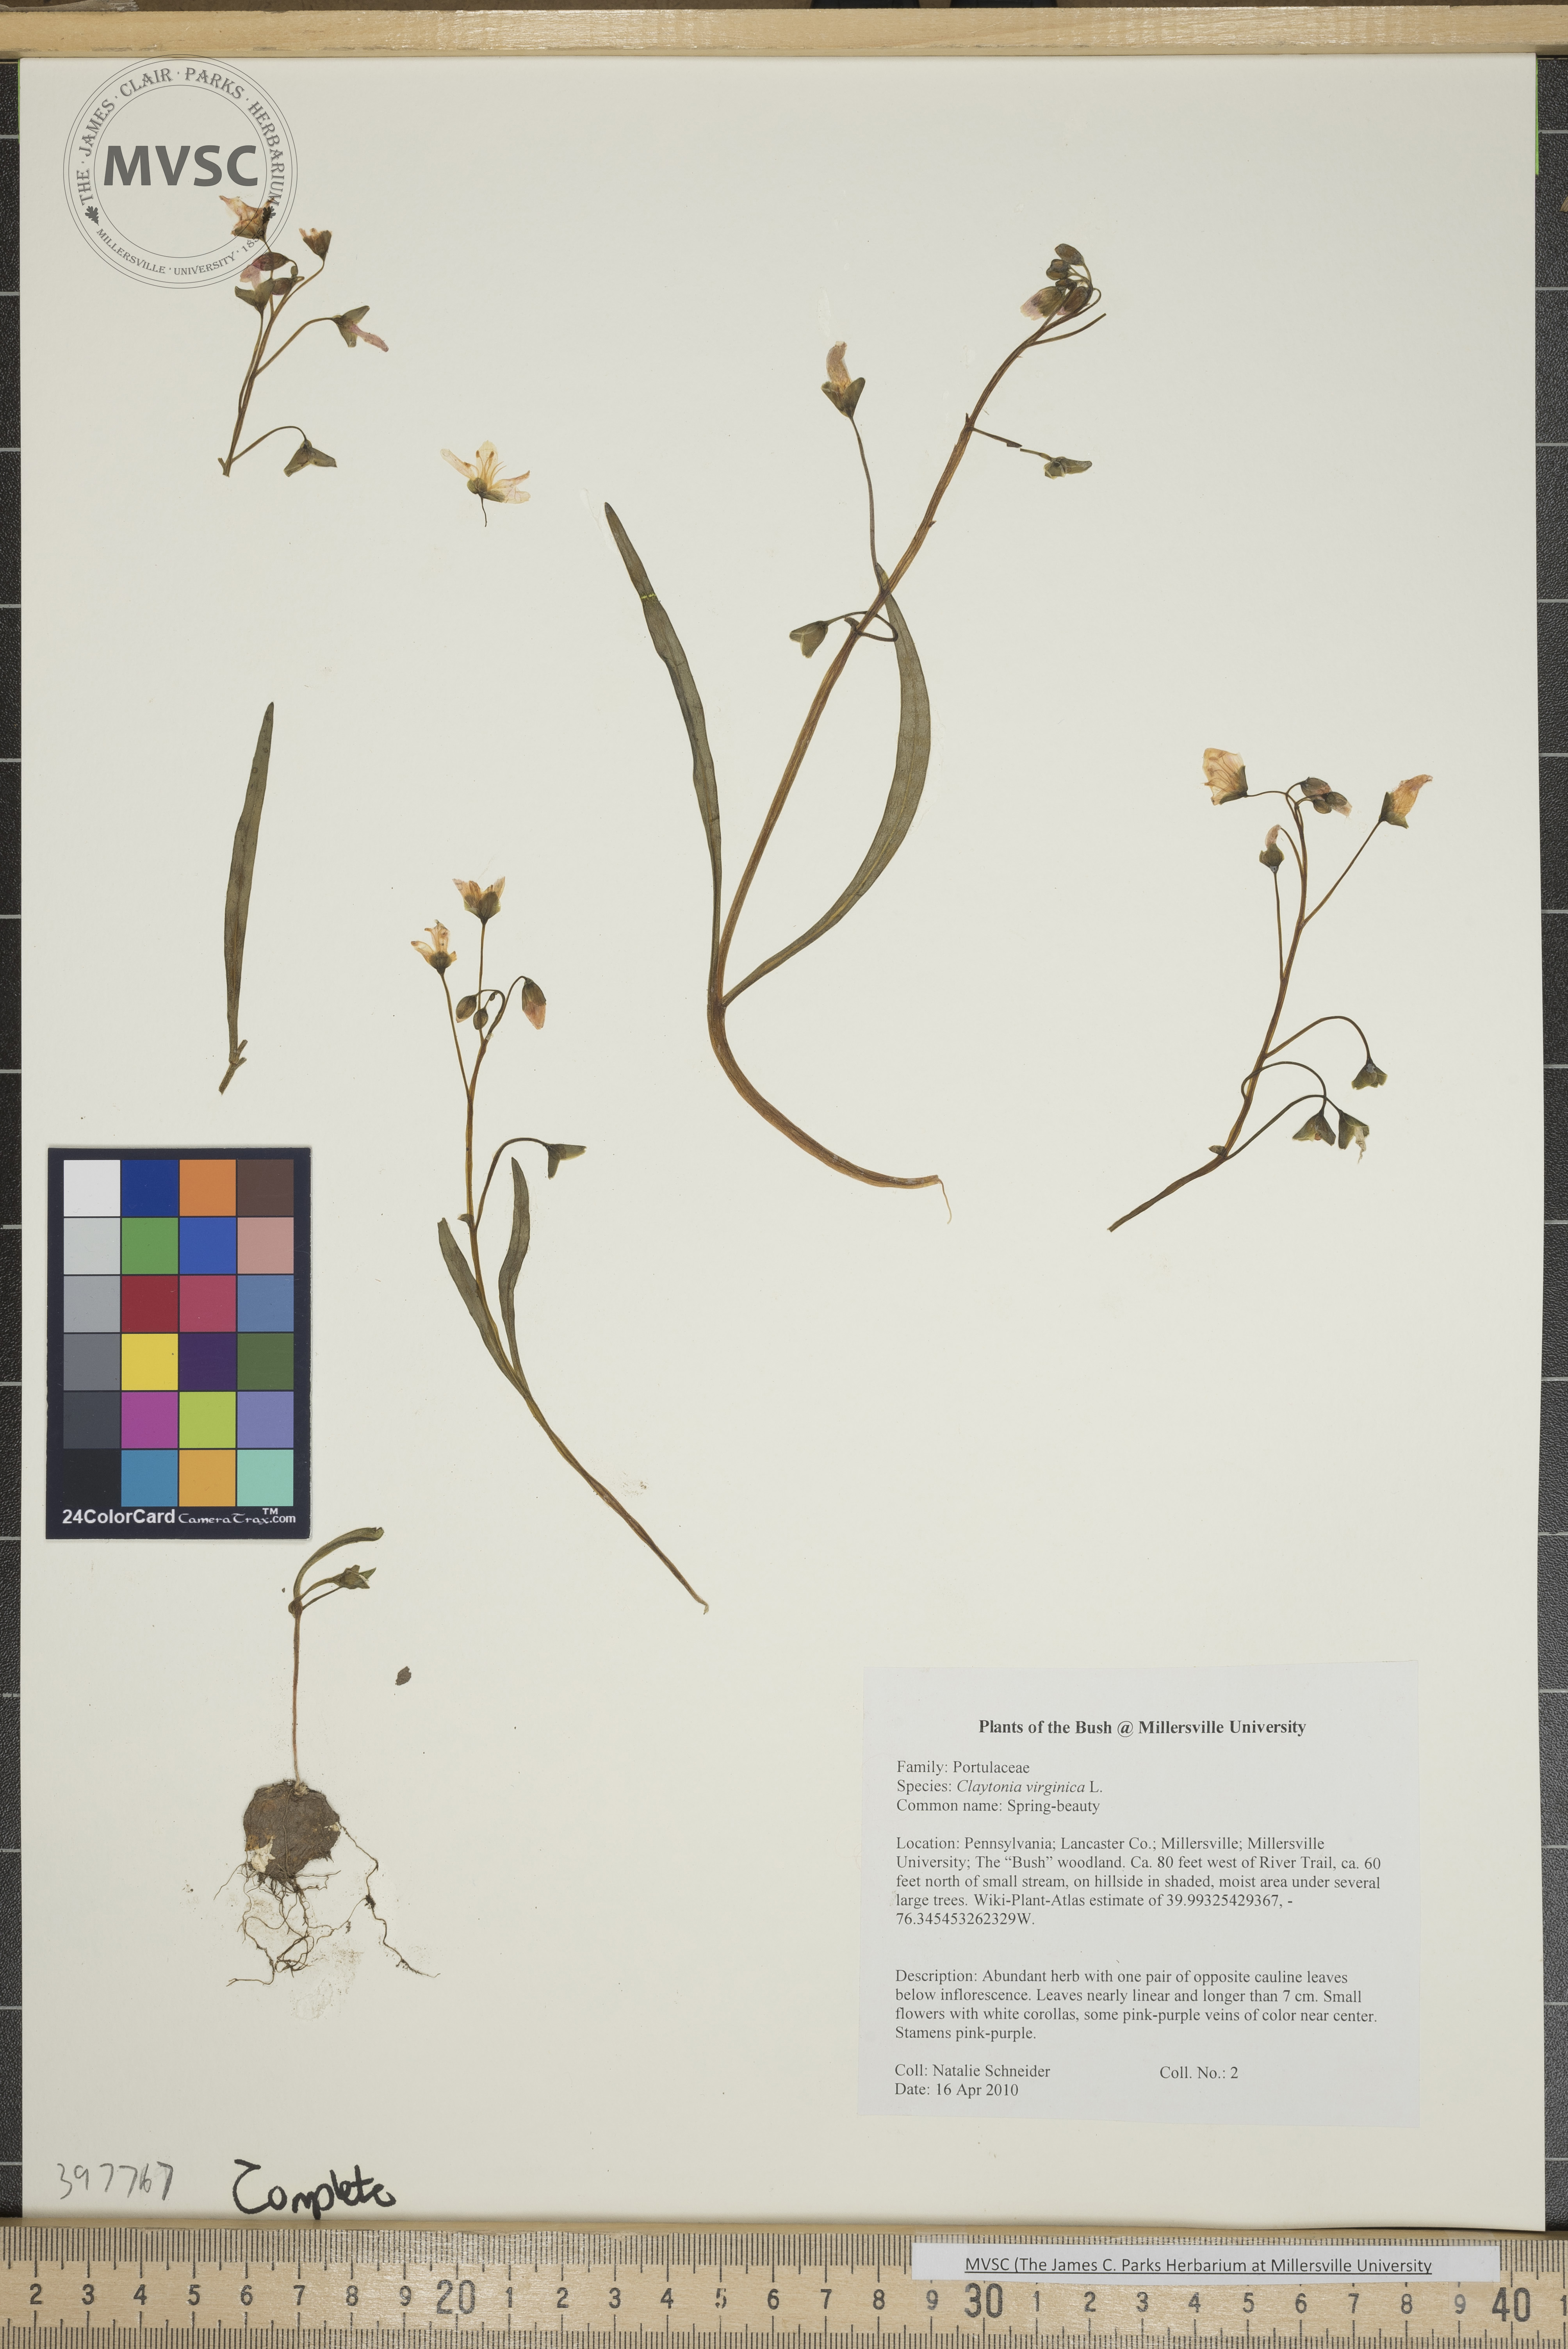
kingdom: Plantae
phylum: Tracheophyta
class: Magnoliopsida
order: Caryophyllales
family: Montiaceae
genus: Claytonia
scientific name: Claytonia virginica
